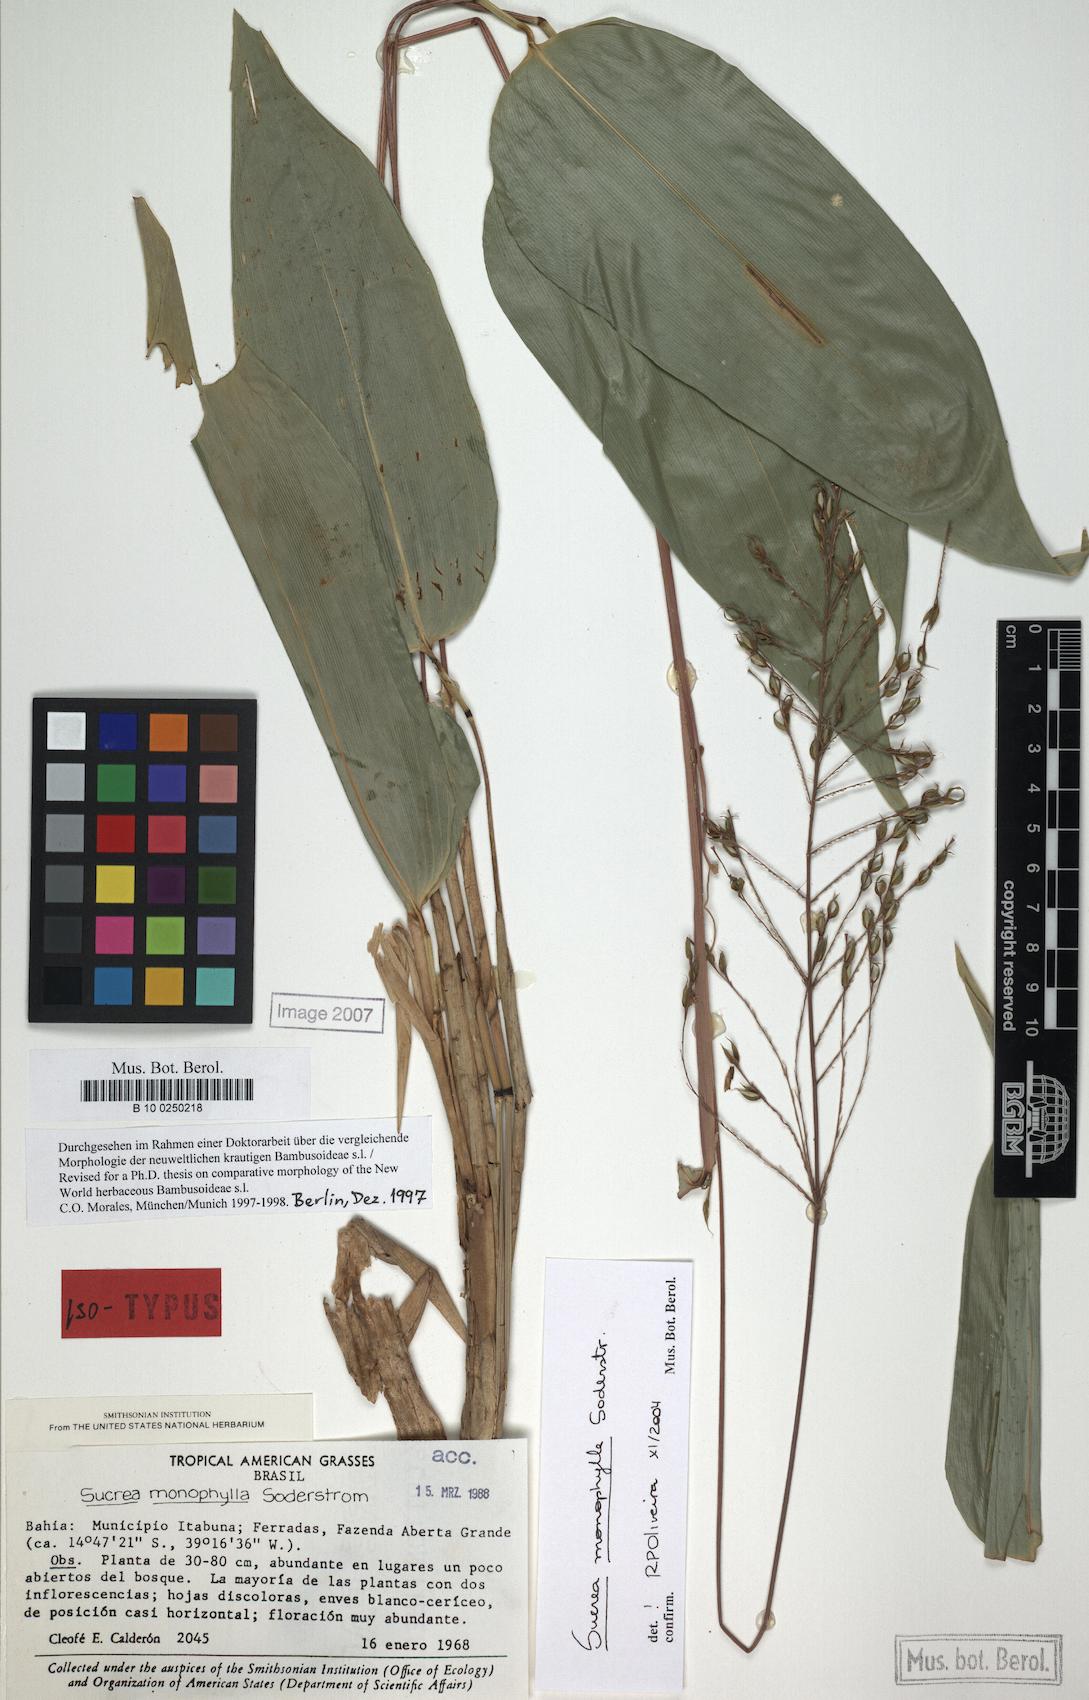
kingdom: Plantae
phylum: Tracheophyta
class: Liliopsida
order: Poales
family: Poaceae
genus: Raddia
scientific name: Raddia monophylla
